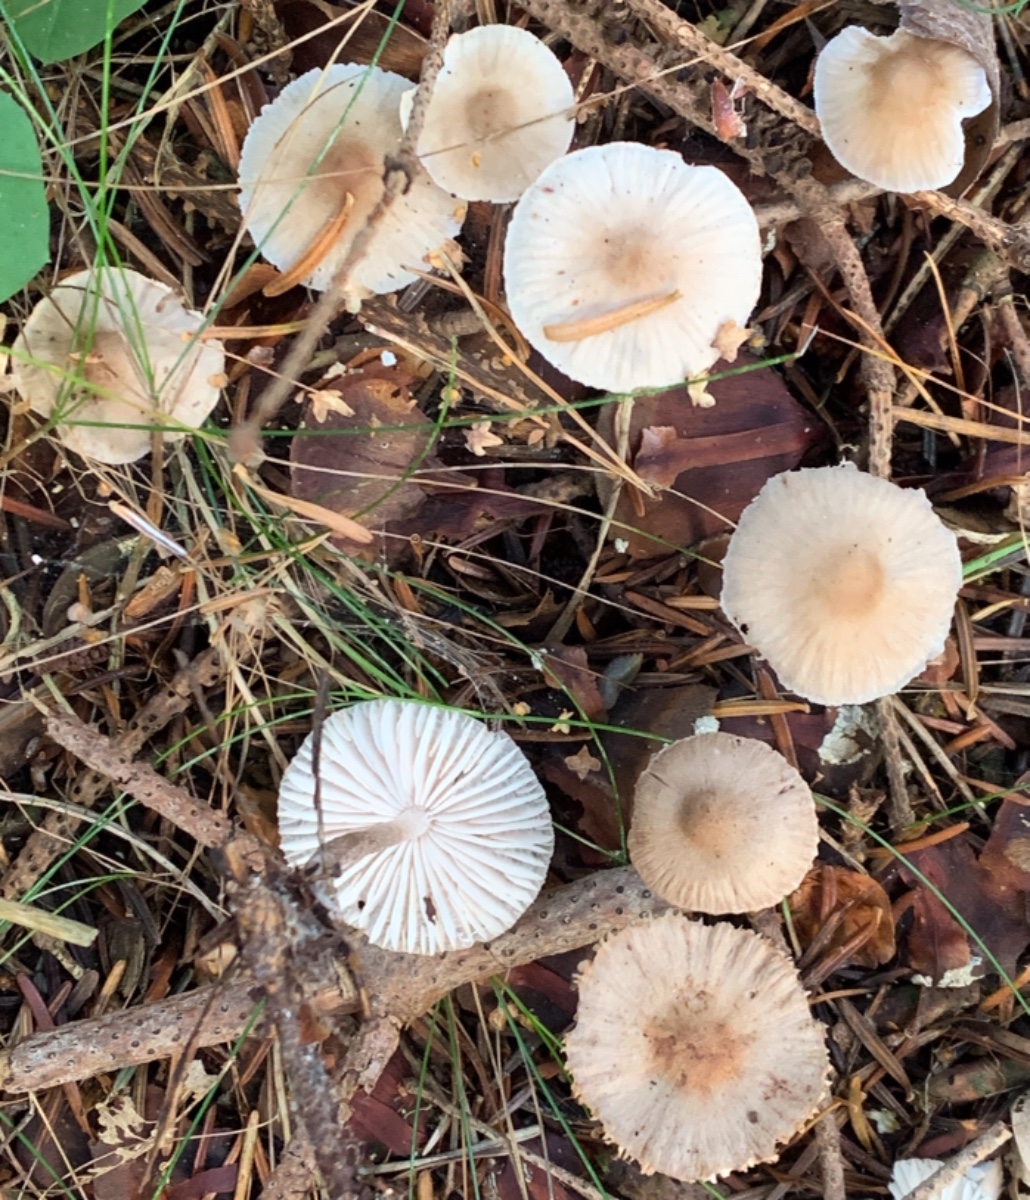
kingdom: Fungi
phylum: Basidiomycota
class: Agaricomycetes
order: Agaricales
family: Mycenaceae
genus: Mycena
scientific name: Mycena zephirus
